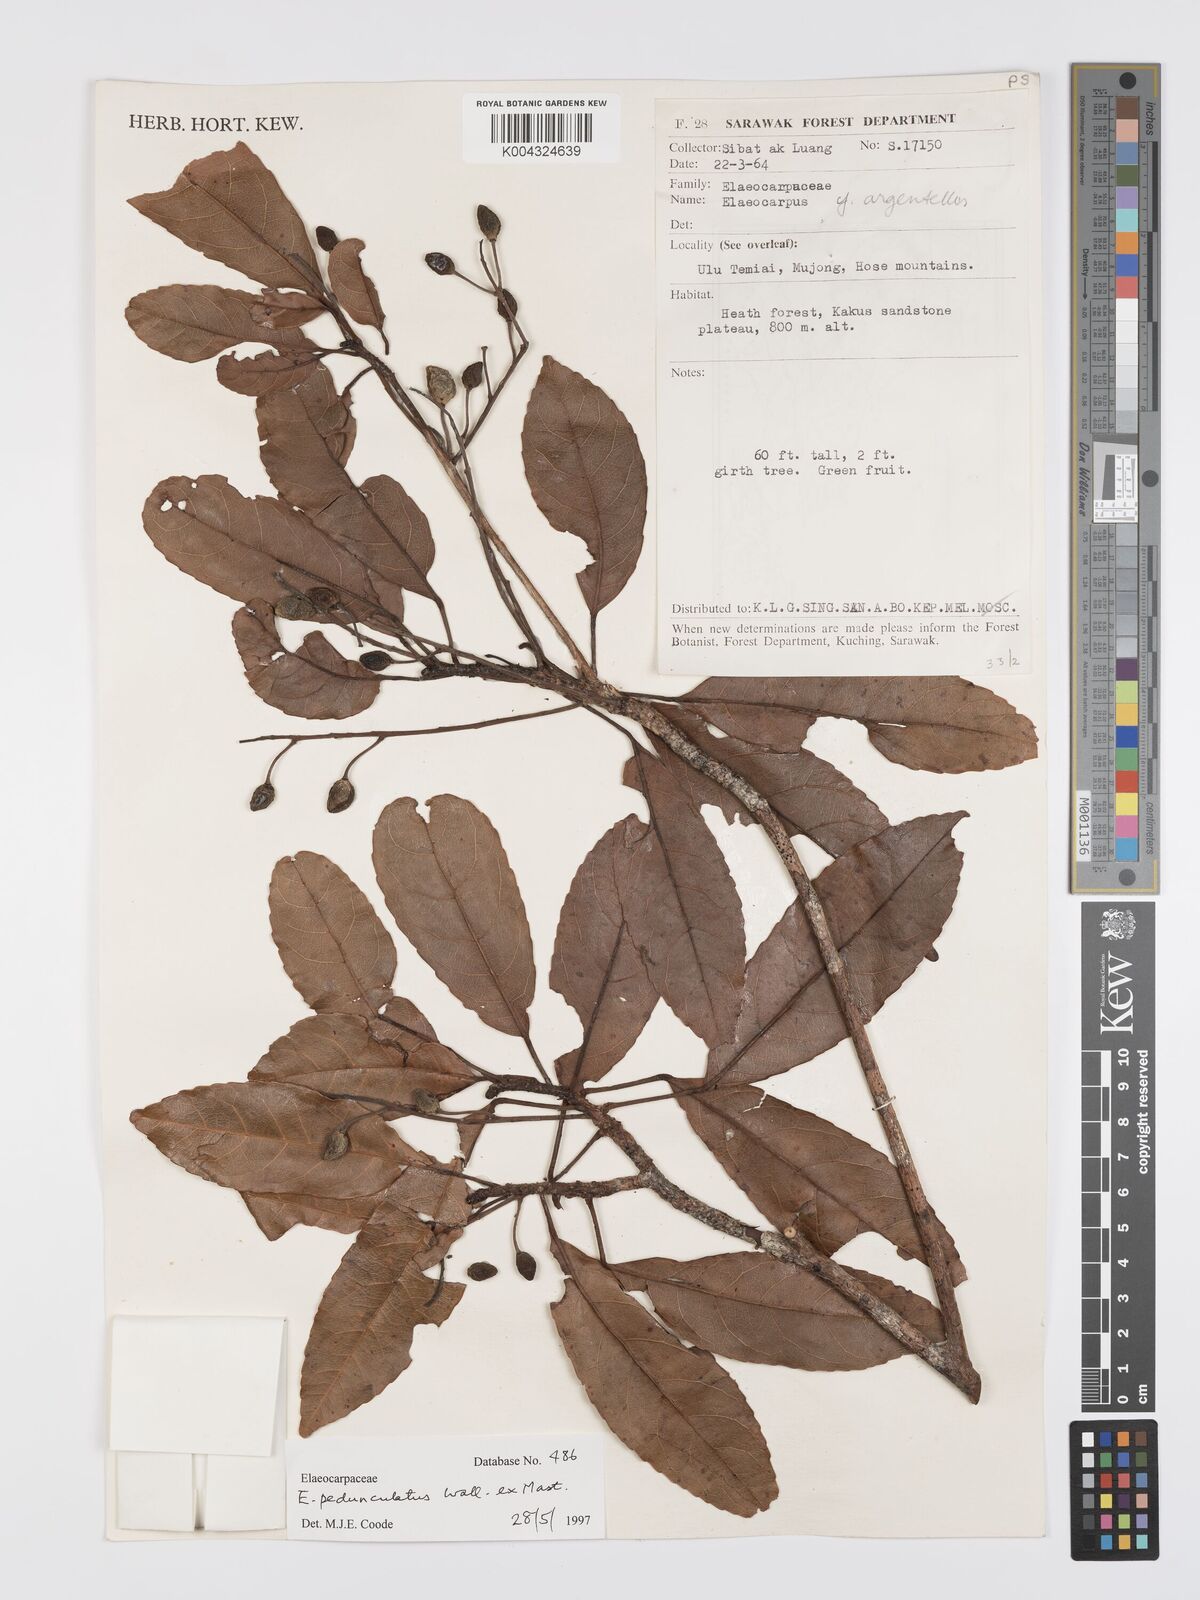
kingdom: Plantae
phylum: Tracheophyta
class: Magnoliopsida
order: Oxalidales
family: Elaeocarpaceae
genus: Elaeocarpus
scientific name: Elaeocarpus pedunculatus
